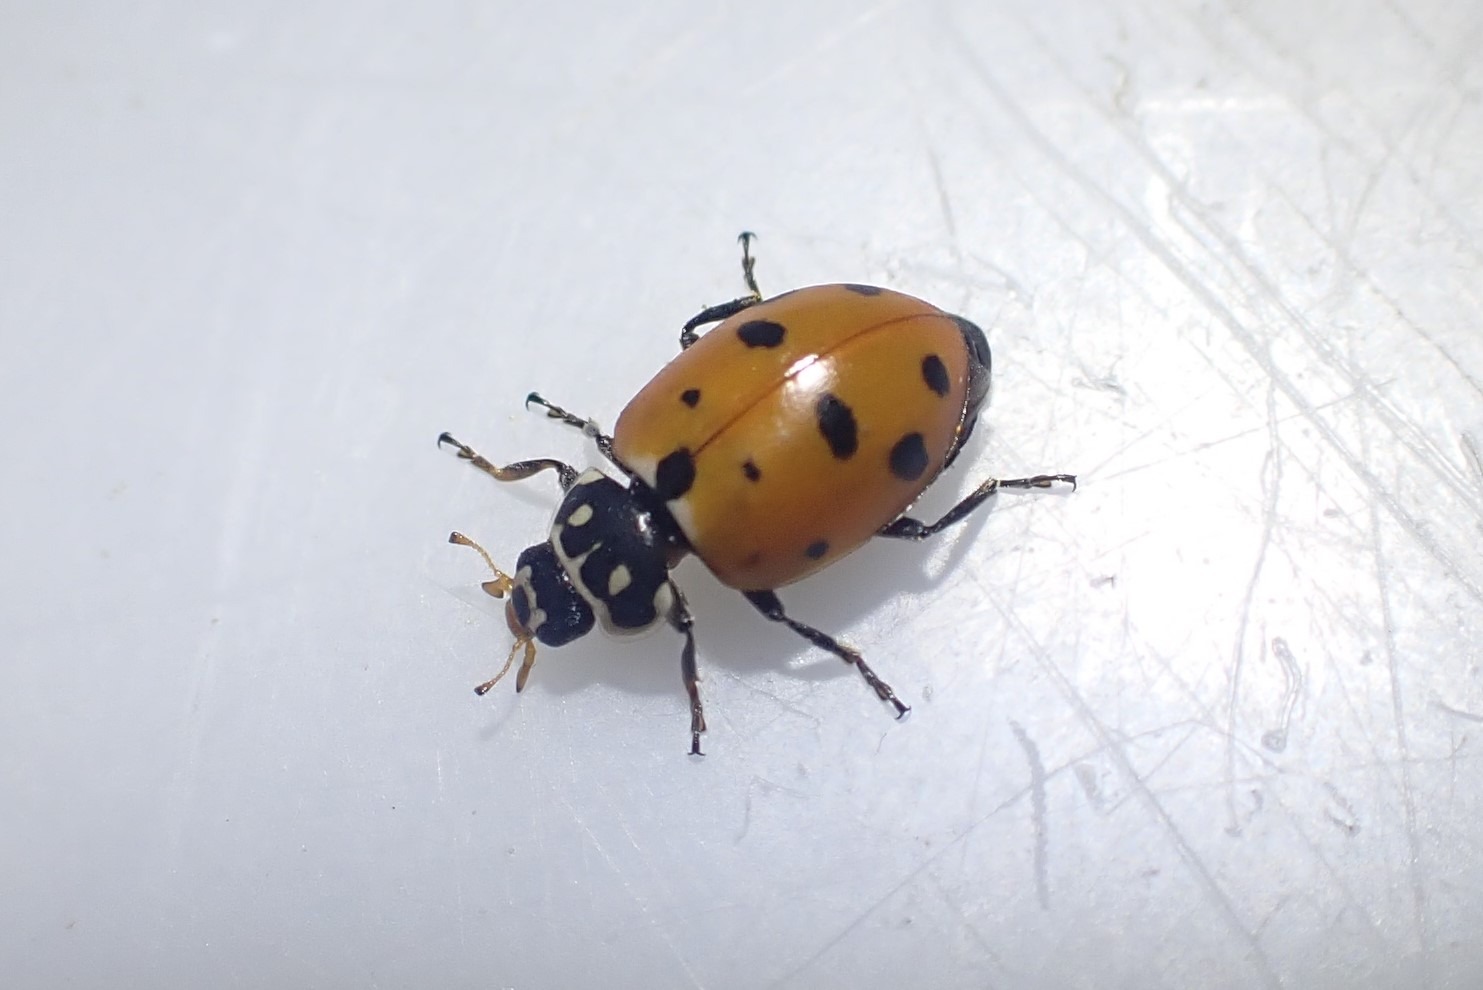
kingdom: Animalia
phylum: Arthropoda
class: Insecta
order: Coleoptera
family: Coccinellidae
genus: Hippodamia
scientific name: Hippodamia variegata
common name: Adonis' mariehøne
